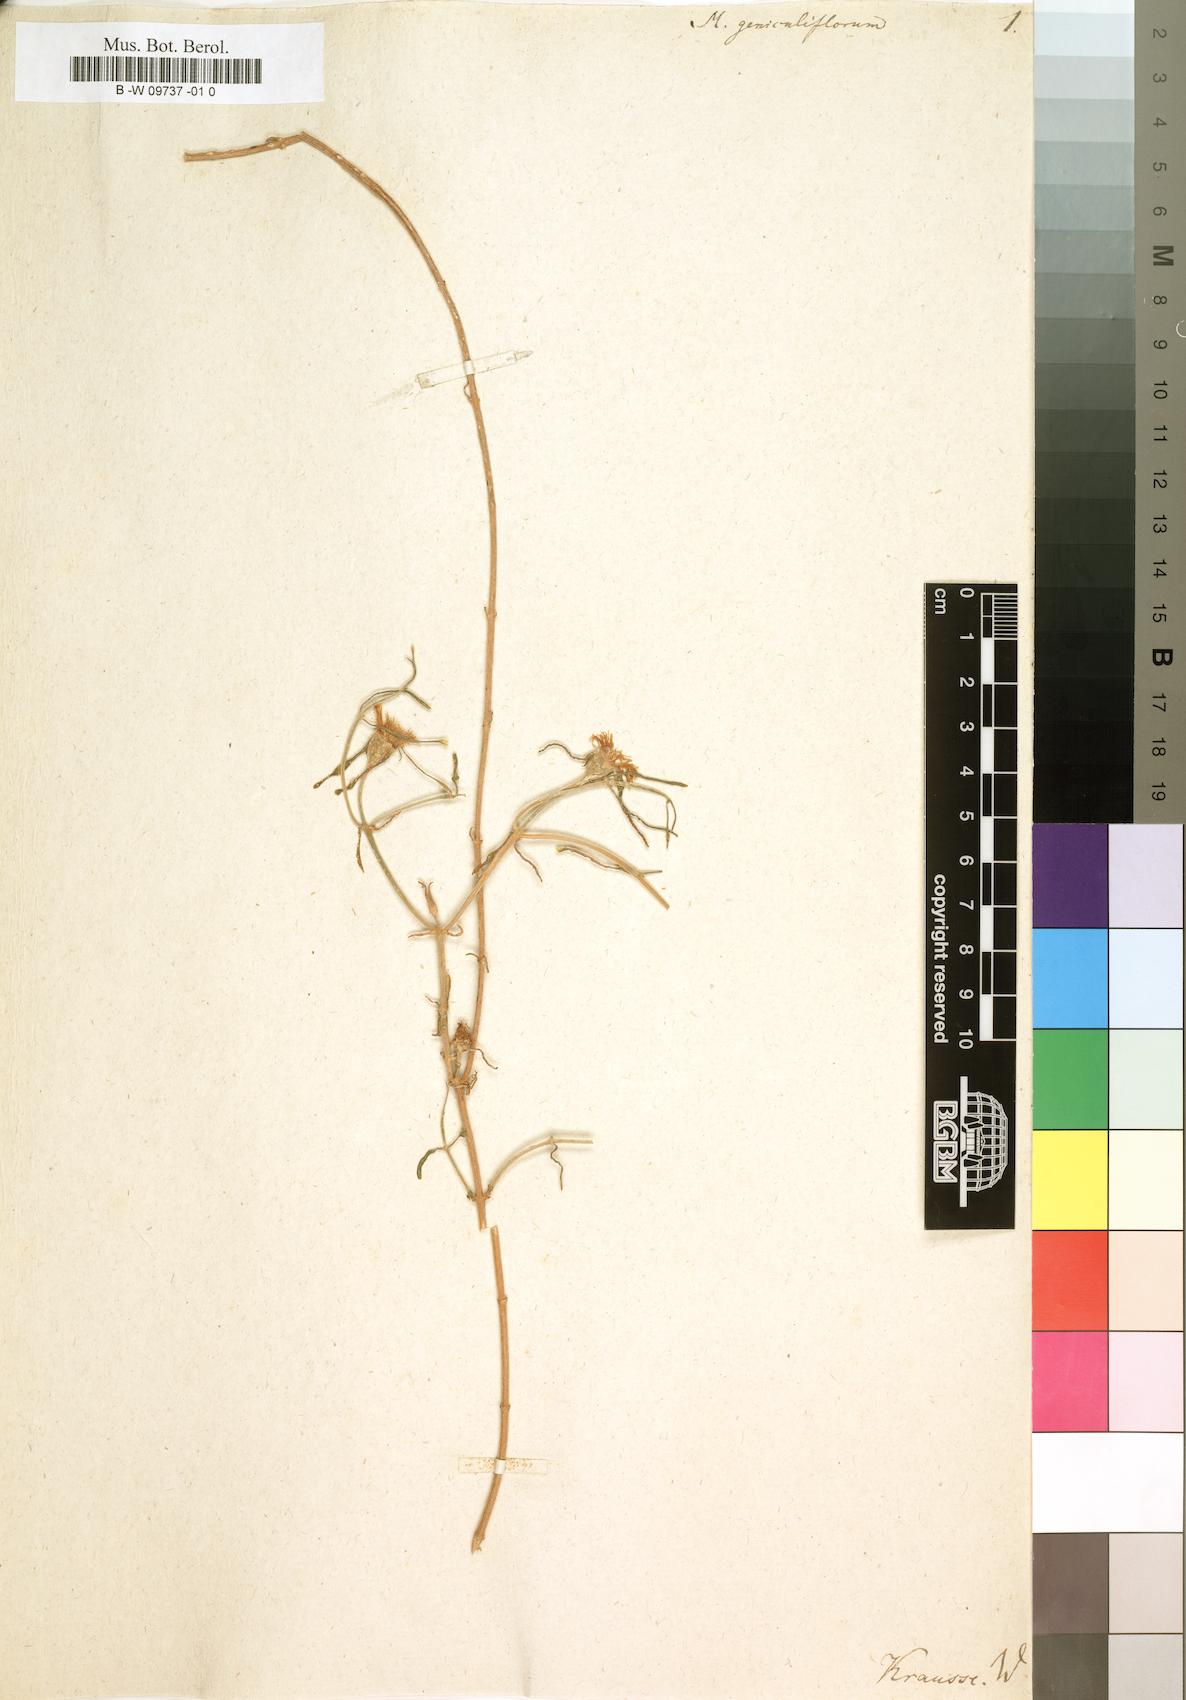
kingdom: Plantae
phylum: Tracheophyta
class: Magnoliopsida
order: Caryophyllales
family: Aizoaceae
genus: Mesembryanthemum
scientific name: Mesembryanthemum geniculiflorum
